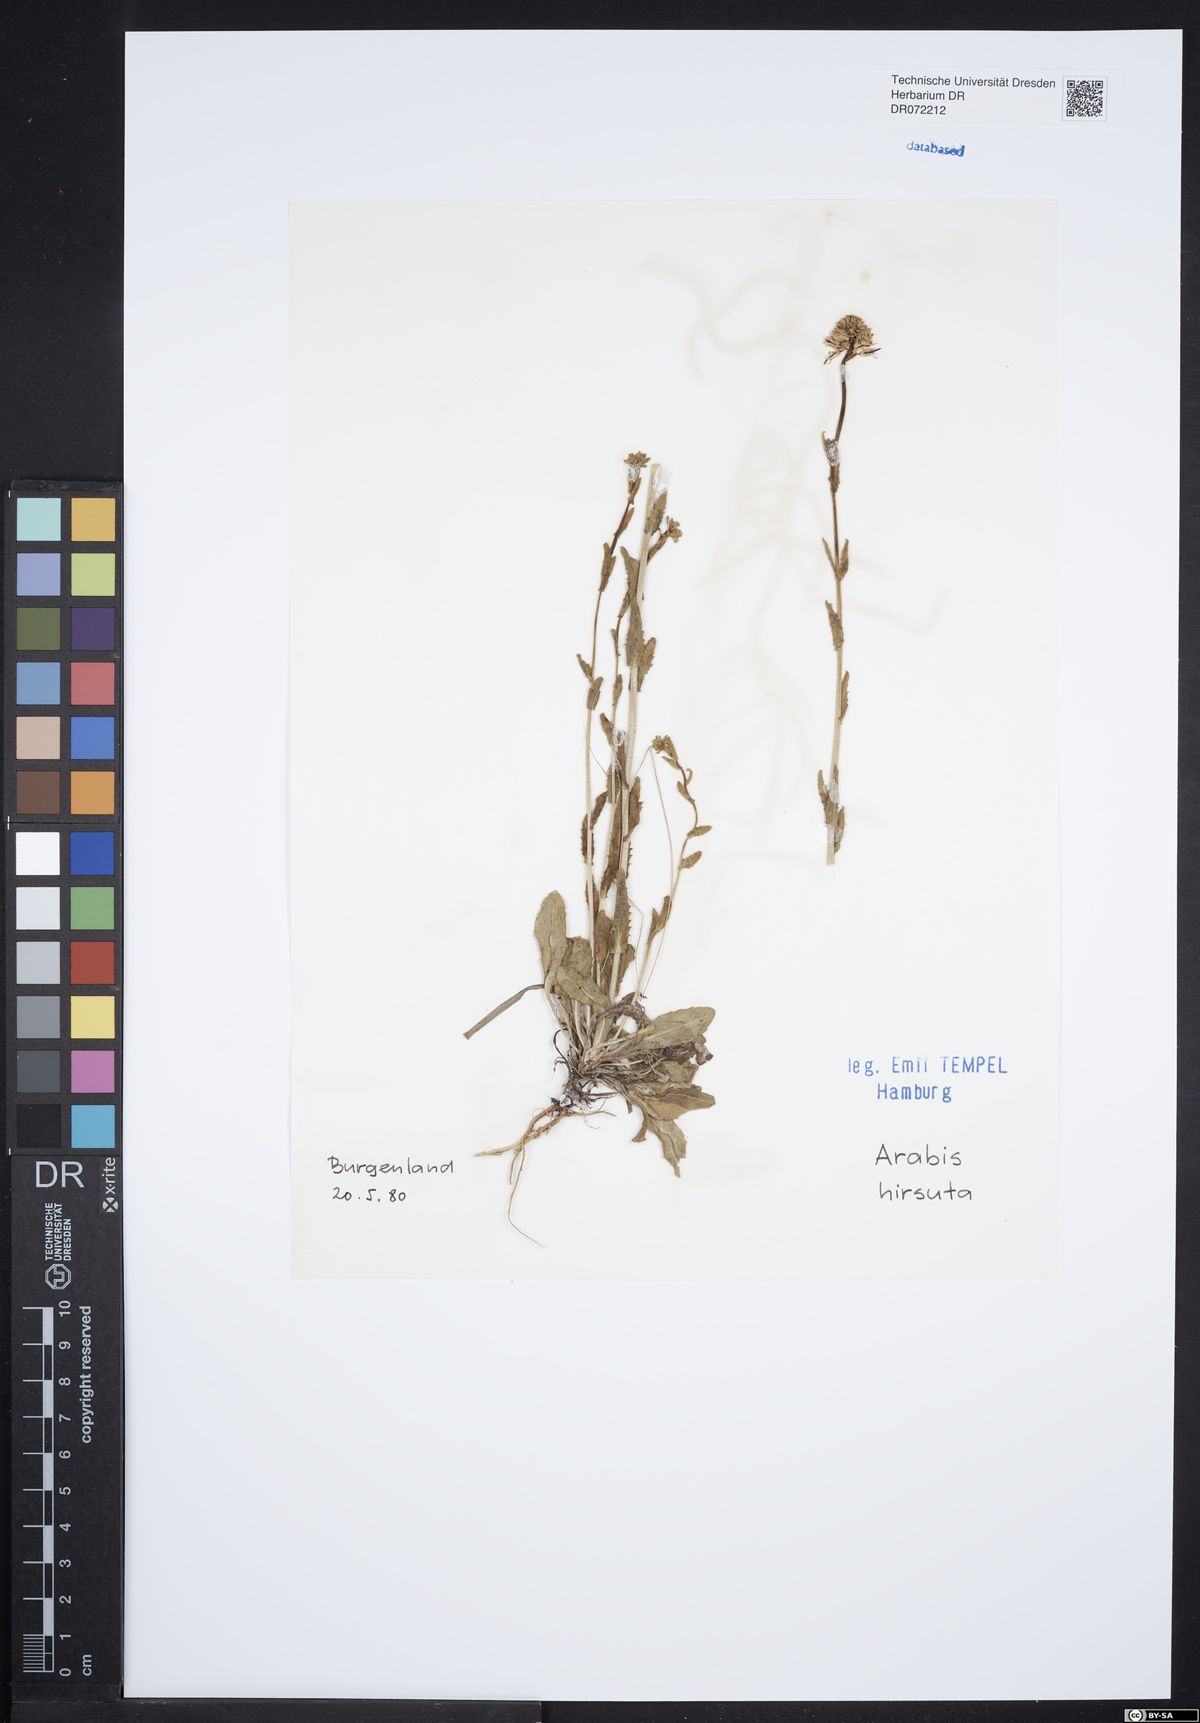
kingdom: Plantae
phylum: Tracheophyta
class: Magnoliopsida
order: Brassicales
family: Brassicaceae
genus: Arabis
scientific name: Arabis hirsuta
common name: Hairy rock-cress
